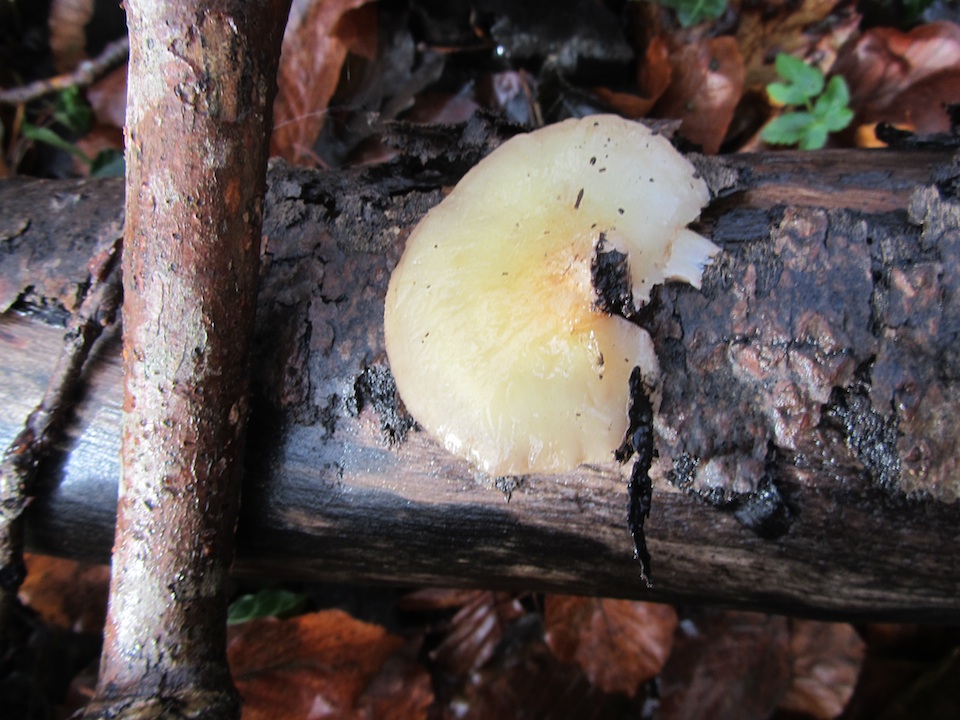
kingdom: Fungi
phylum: Basidiomycota
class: Agaricomycetes
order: Agaricales
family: Crepidotaceae
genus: Crepidotus
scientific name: Crepidotus mollis
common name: blød muslingesvamp
